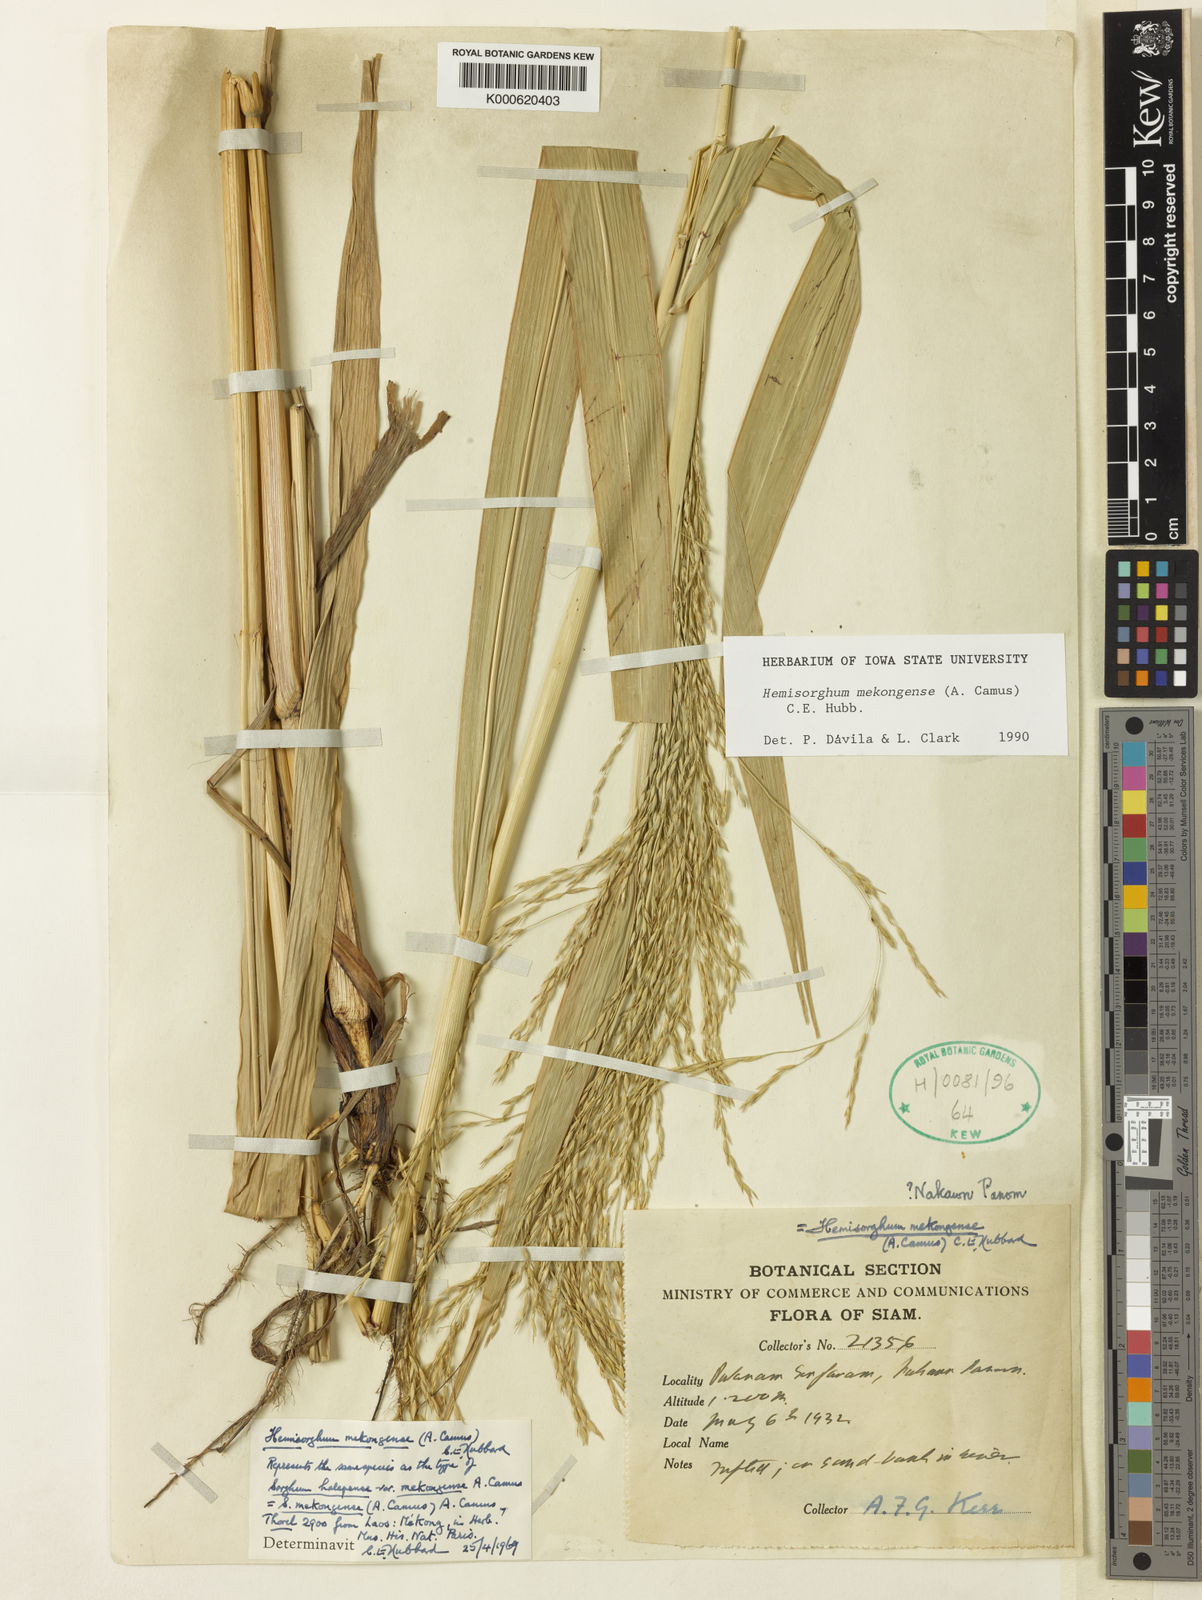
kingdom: Plantae
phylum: Tracheophyta
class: Liliopsida
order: Poales
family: Poaceae
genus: Hemisorghum
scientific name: Hemisorghum mekongense
